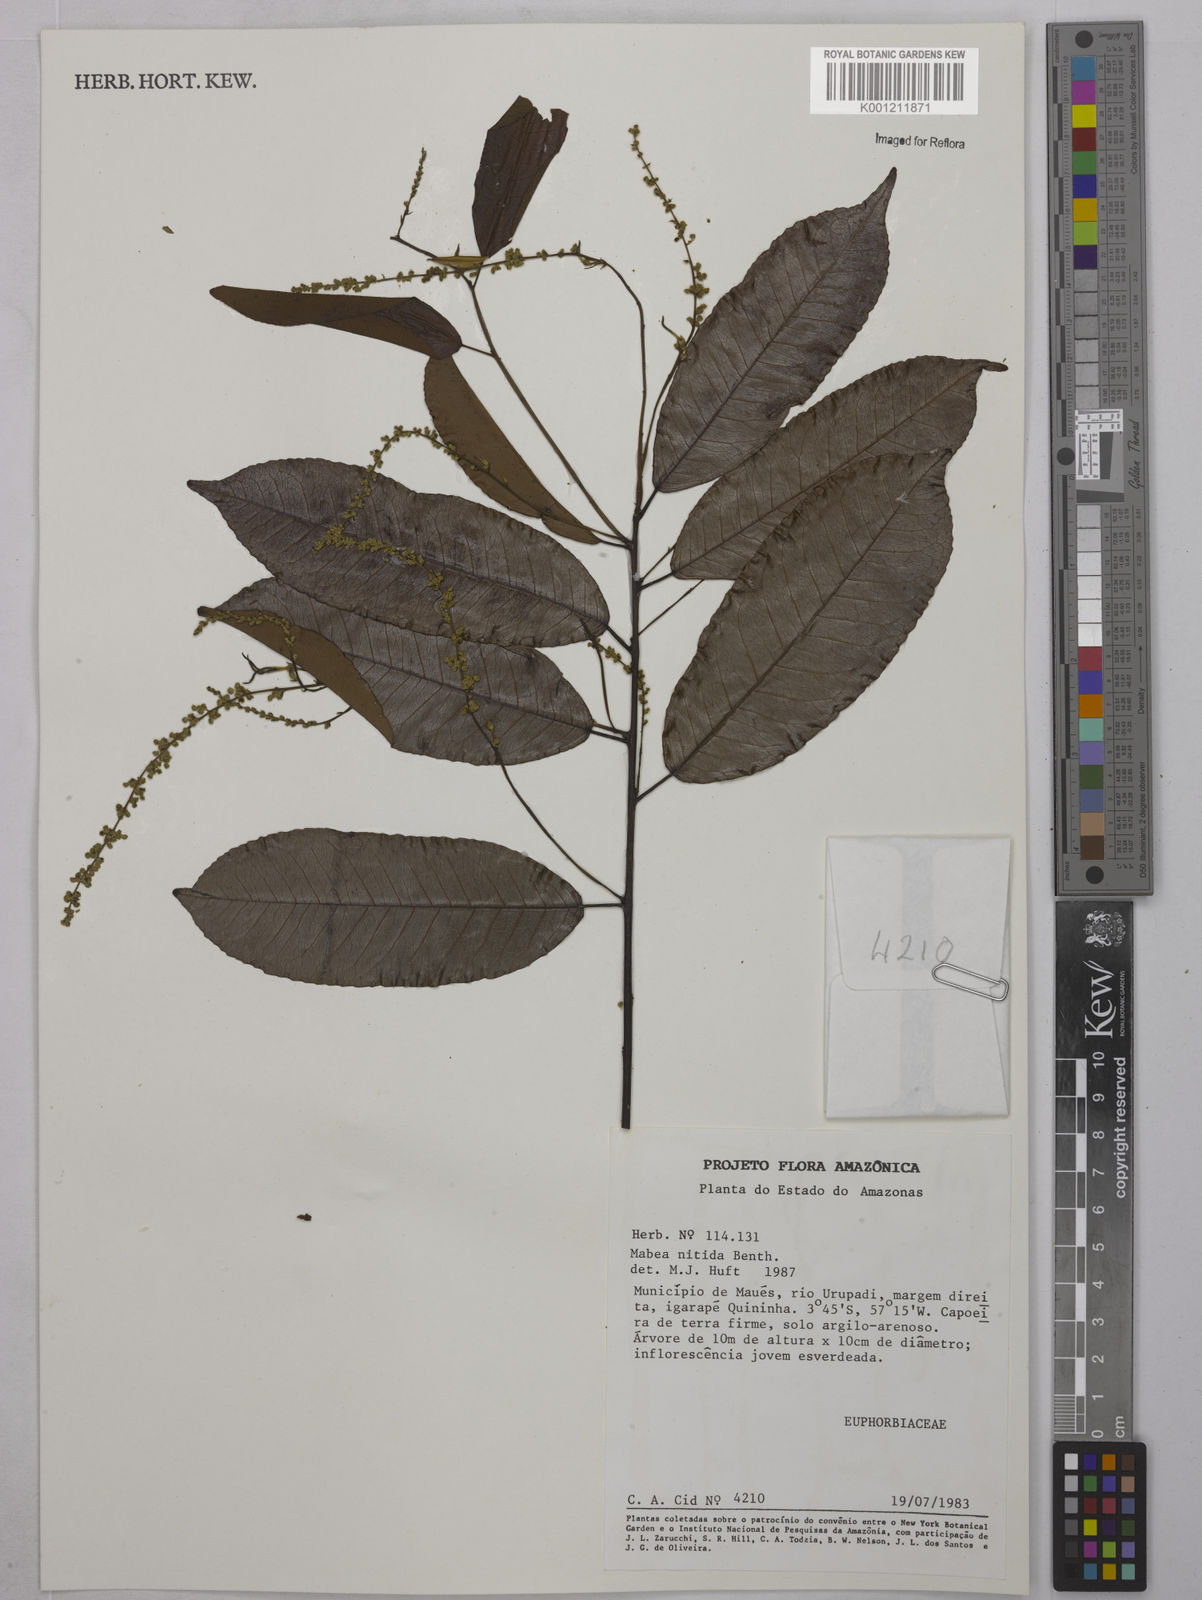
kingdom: Plantae
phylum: Tracheophyta
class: Magnoliopsida
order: Malpighiales
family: Euphorbiaceae
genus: Mabea
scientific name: Mabea nitida
